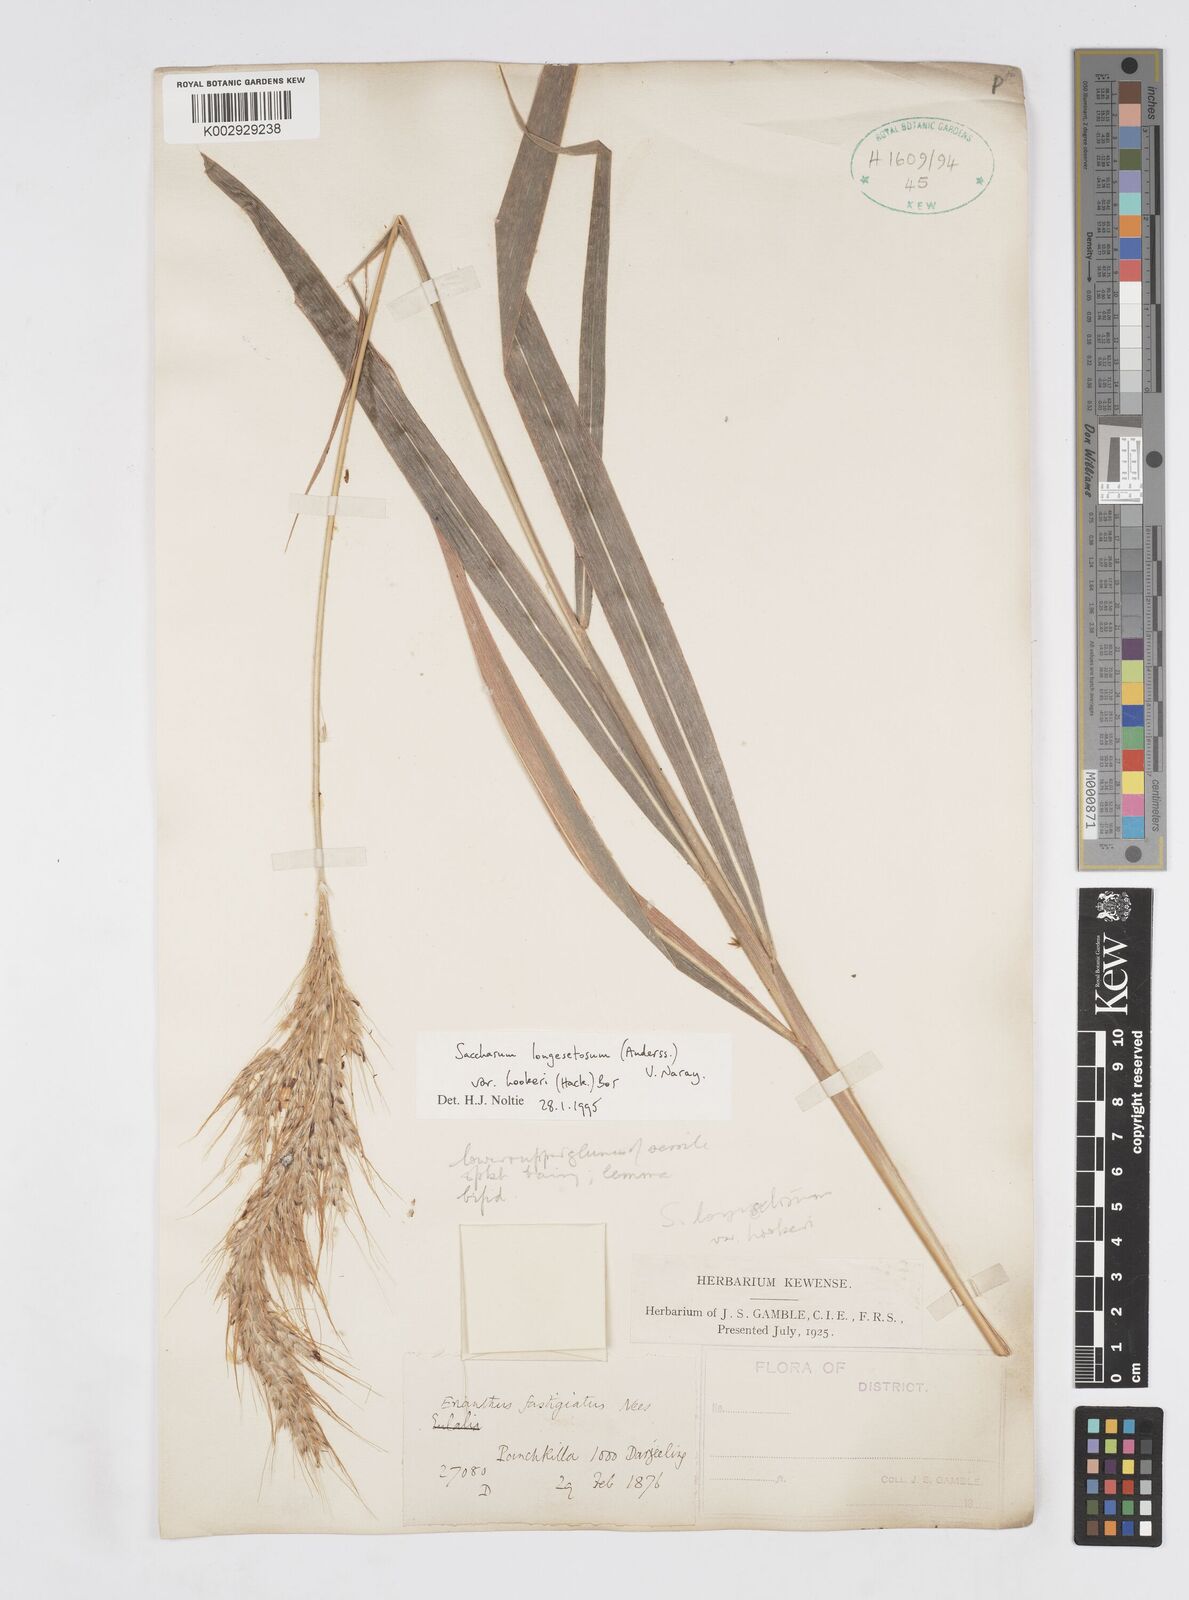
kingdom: Plantae
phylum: Tracheophyta
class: Liliopsida
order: Poales
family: Poaceae
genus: Saccharum
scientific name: Saccharum longesetosum
